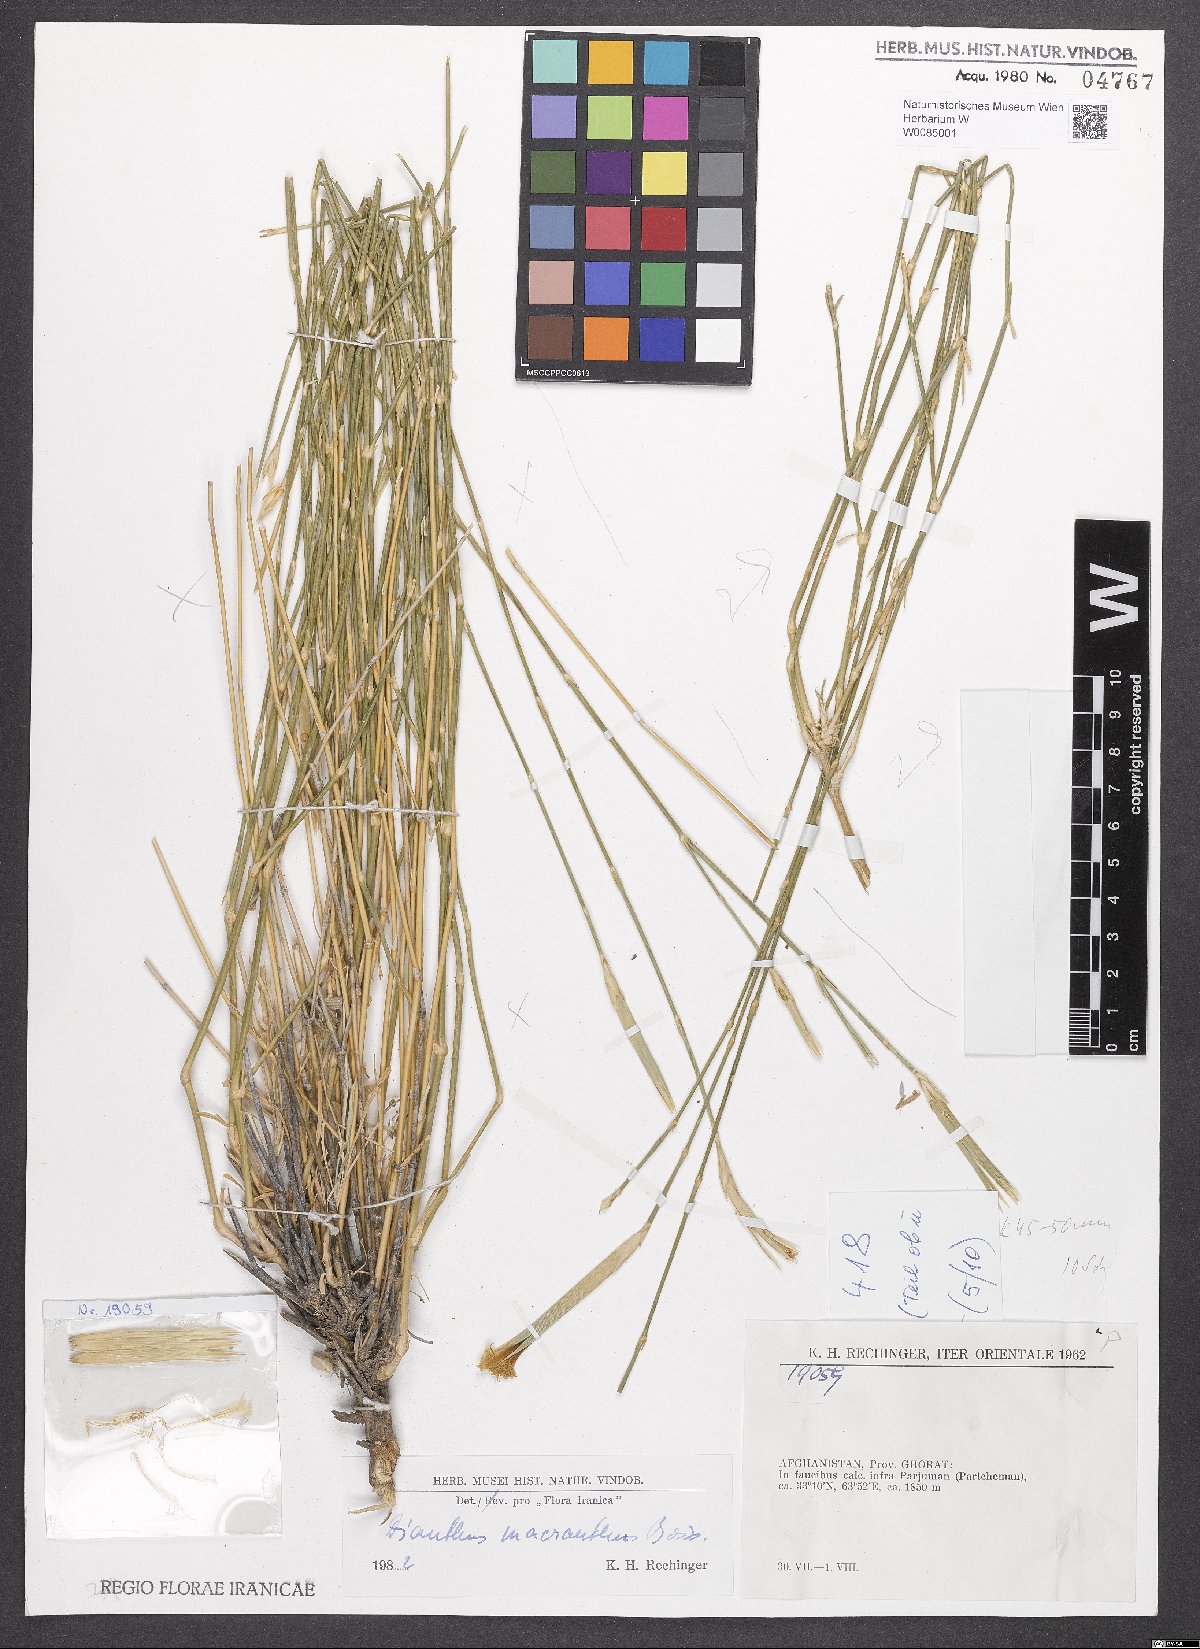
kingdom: Plantae
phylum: Tracheophyta
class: Magnoliopsida
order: Caryophyllales
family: Caryophyllaceae
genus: Dianthus
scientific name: Dianthus macranthus
